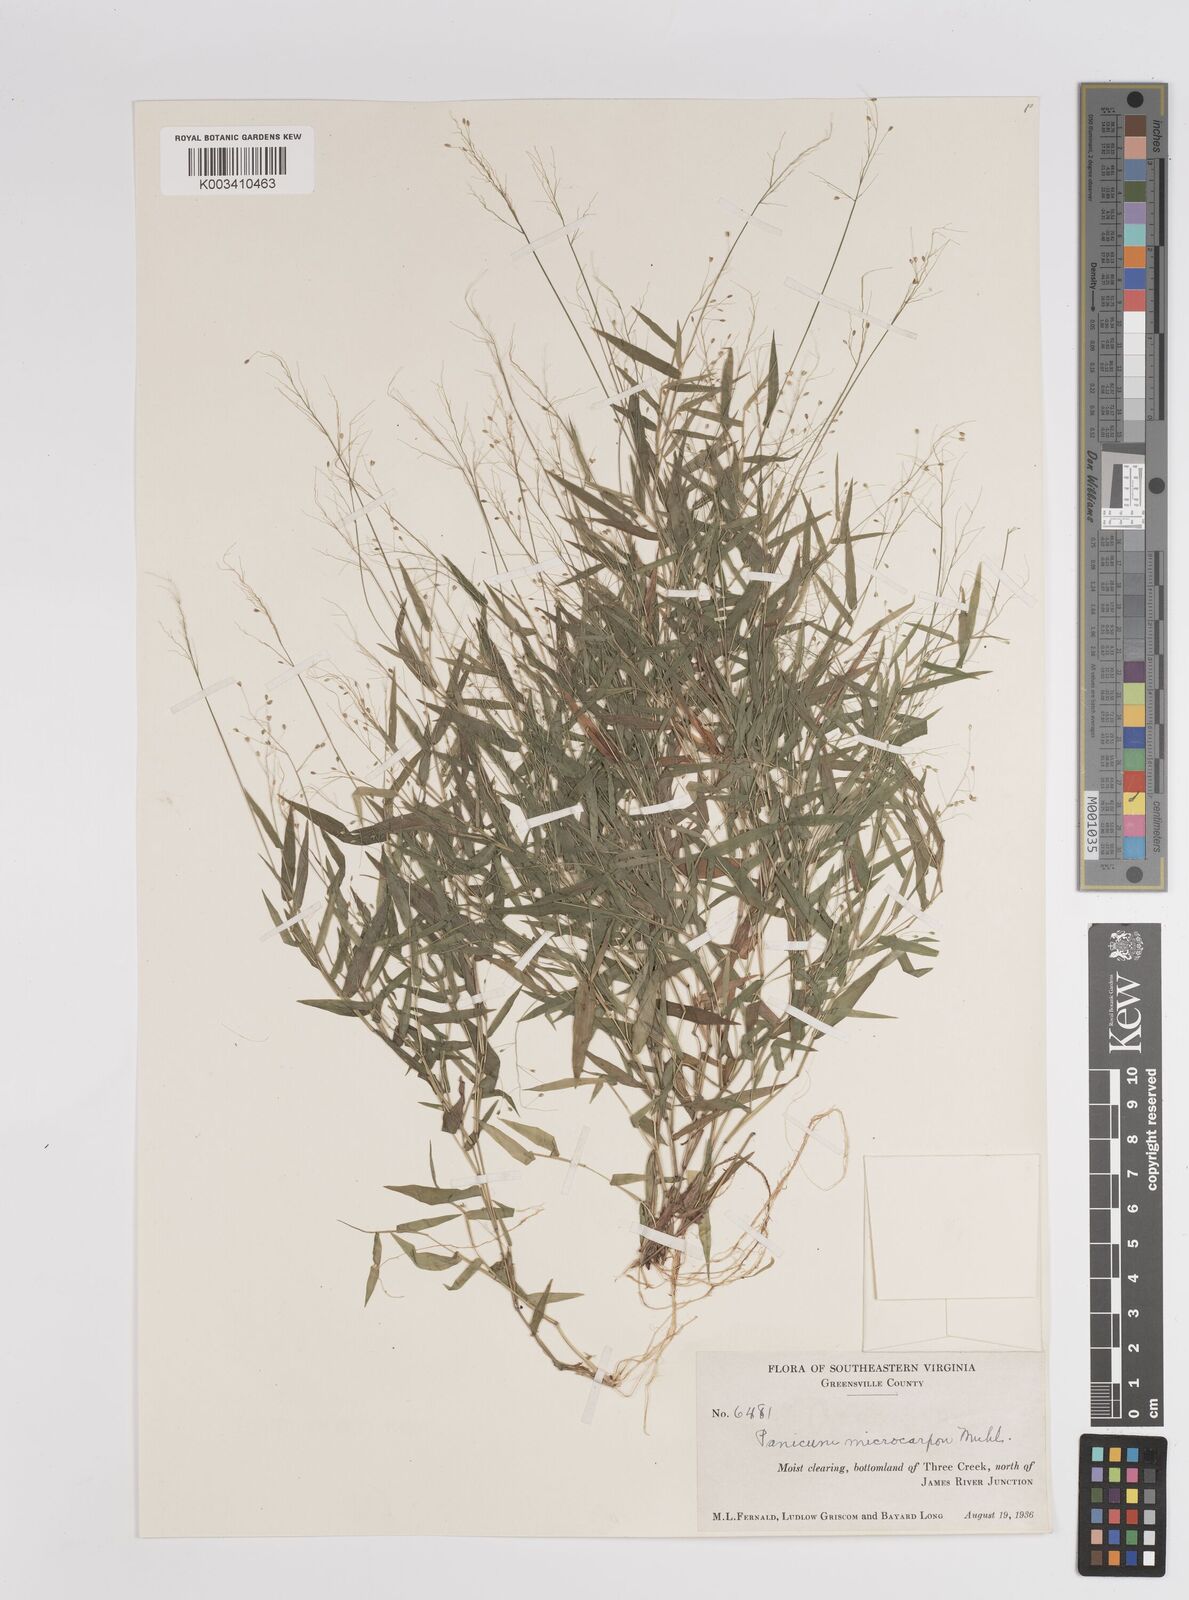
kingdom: Plantae
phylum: Tracheophyta
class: Liliopsida
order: Poales
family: Poaceae
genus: Dichanthelium
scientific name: Dichanthelium polyanthes
